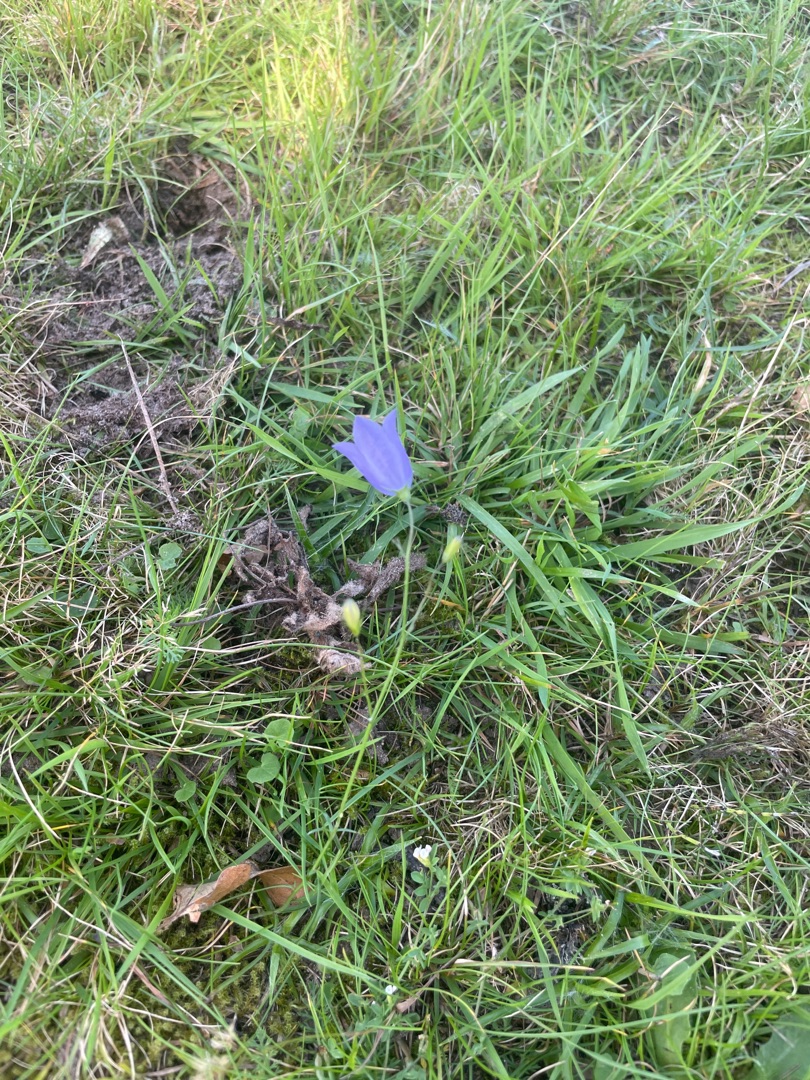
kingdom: Plantae
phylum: Tracheophyta
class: Magnoliopsida
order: Asterales
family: Campanulaceae
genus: Campanula
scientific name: Campanula rotundifolia
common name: Liden klokke
